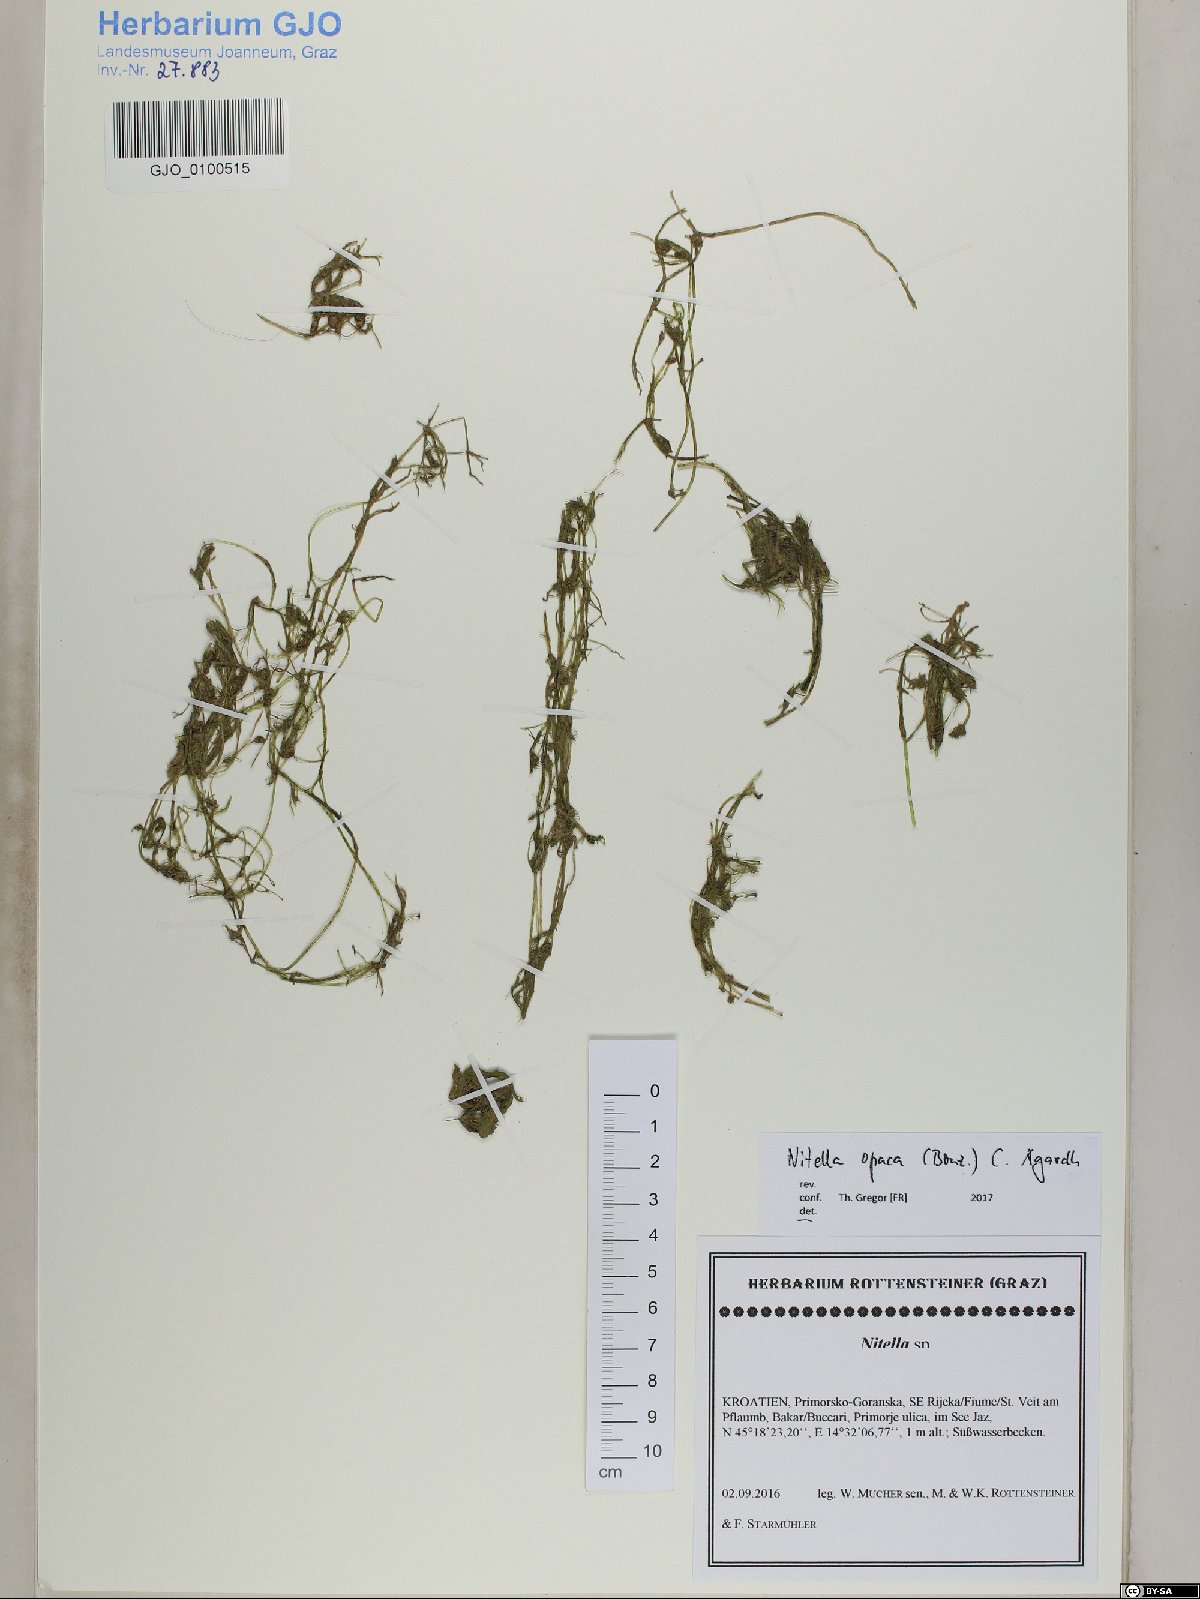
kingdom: Plantae
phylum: Charophyta
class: Charophyceae
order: Charales
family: Characeae
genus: Nitella
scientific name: Nitella opaca
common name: Dark stonewort
